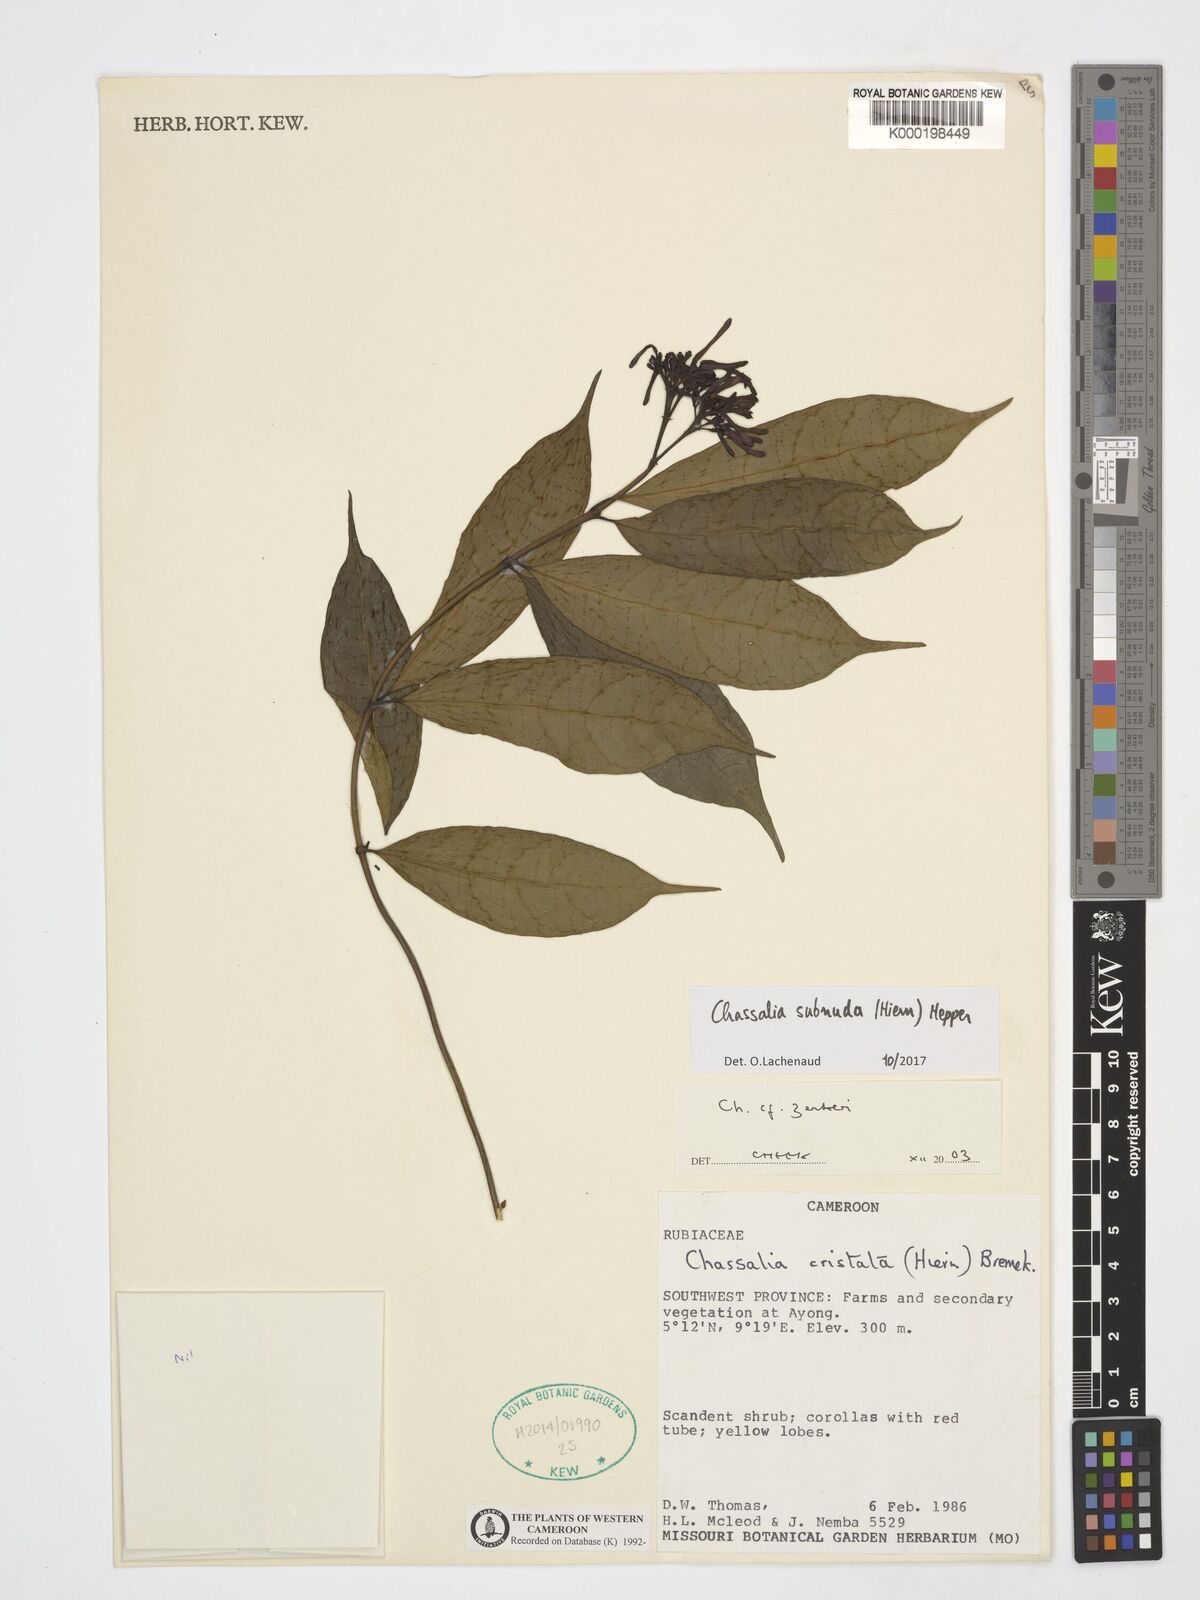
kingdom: Plantae
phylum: Tracheophyta
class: Magnoliopsida
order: Gentianales
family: Rubiaceae
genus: Chassalia
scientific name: Chassalia zenkeri
